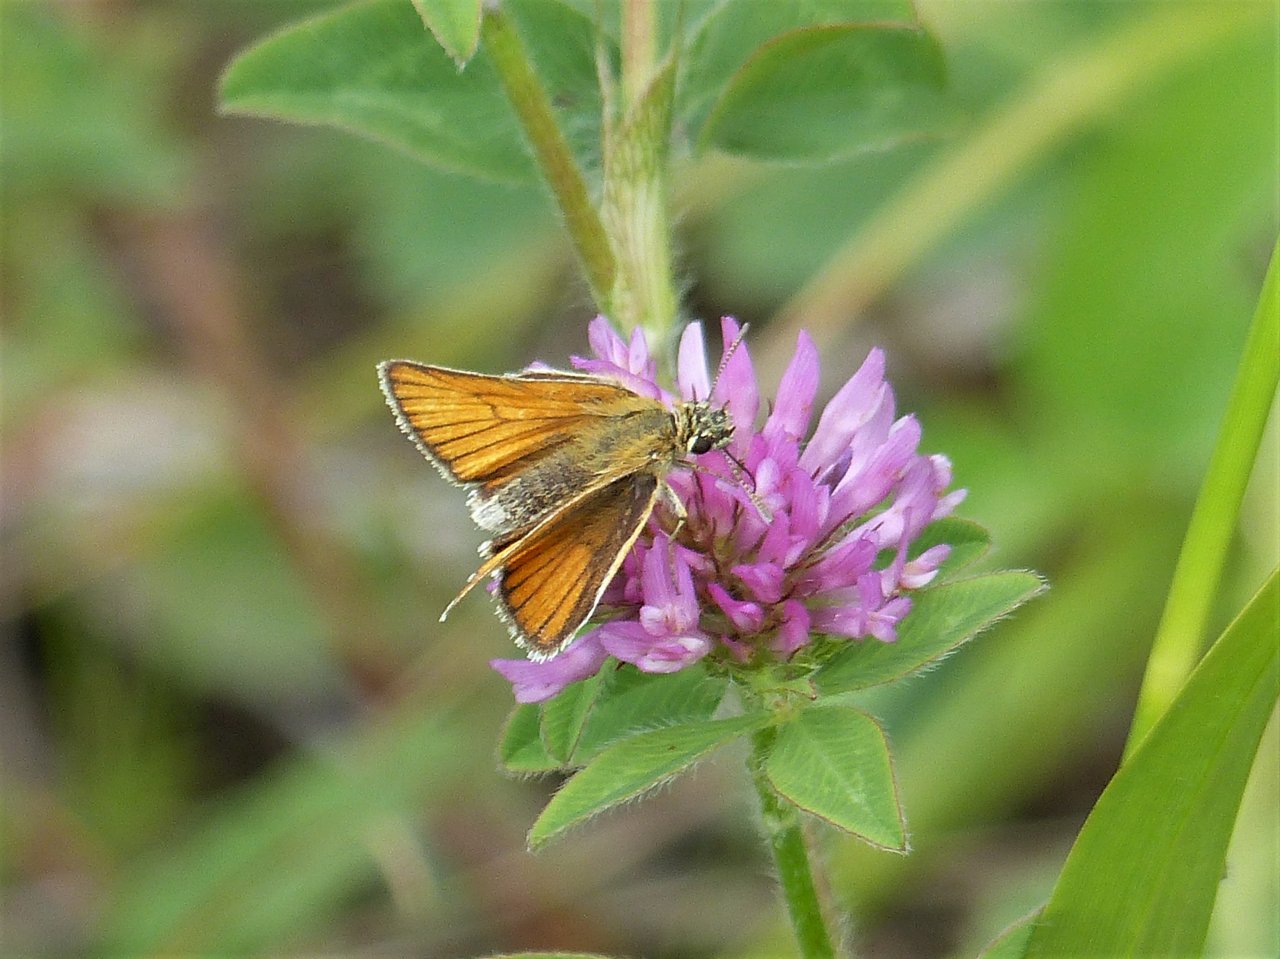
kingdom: Animalia
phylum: Arthropoda
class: Insecta
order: Lepidoptera
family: Hesperiidae
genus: Thymelicus
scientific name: Thymelicus lineola
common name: European Skipper
